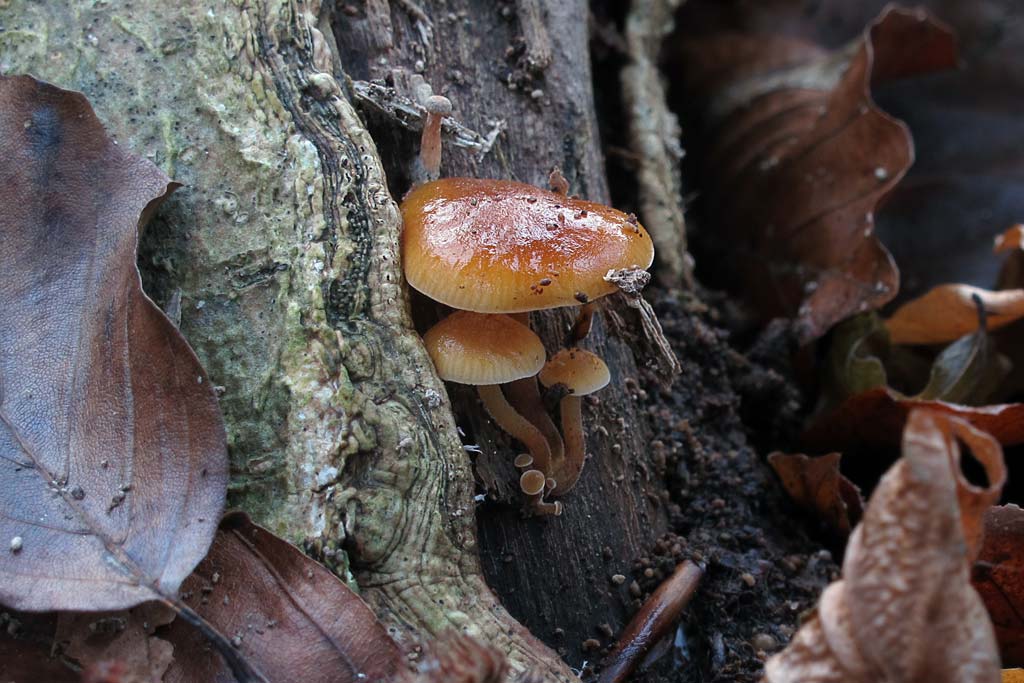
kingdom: Fungi
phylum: Basidiomycota
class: Agaricomycetes
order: Agaricales
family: Physalacriaceae
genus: Flammulina
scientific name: Flammulina velutipes
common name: gul fløjlsfod
